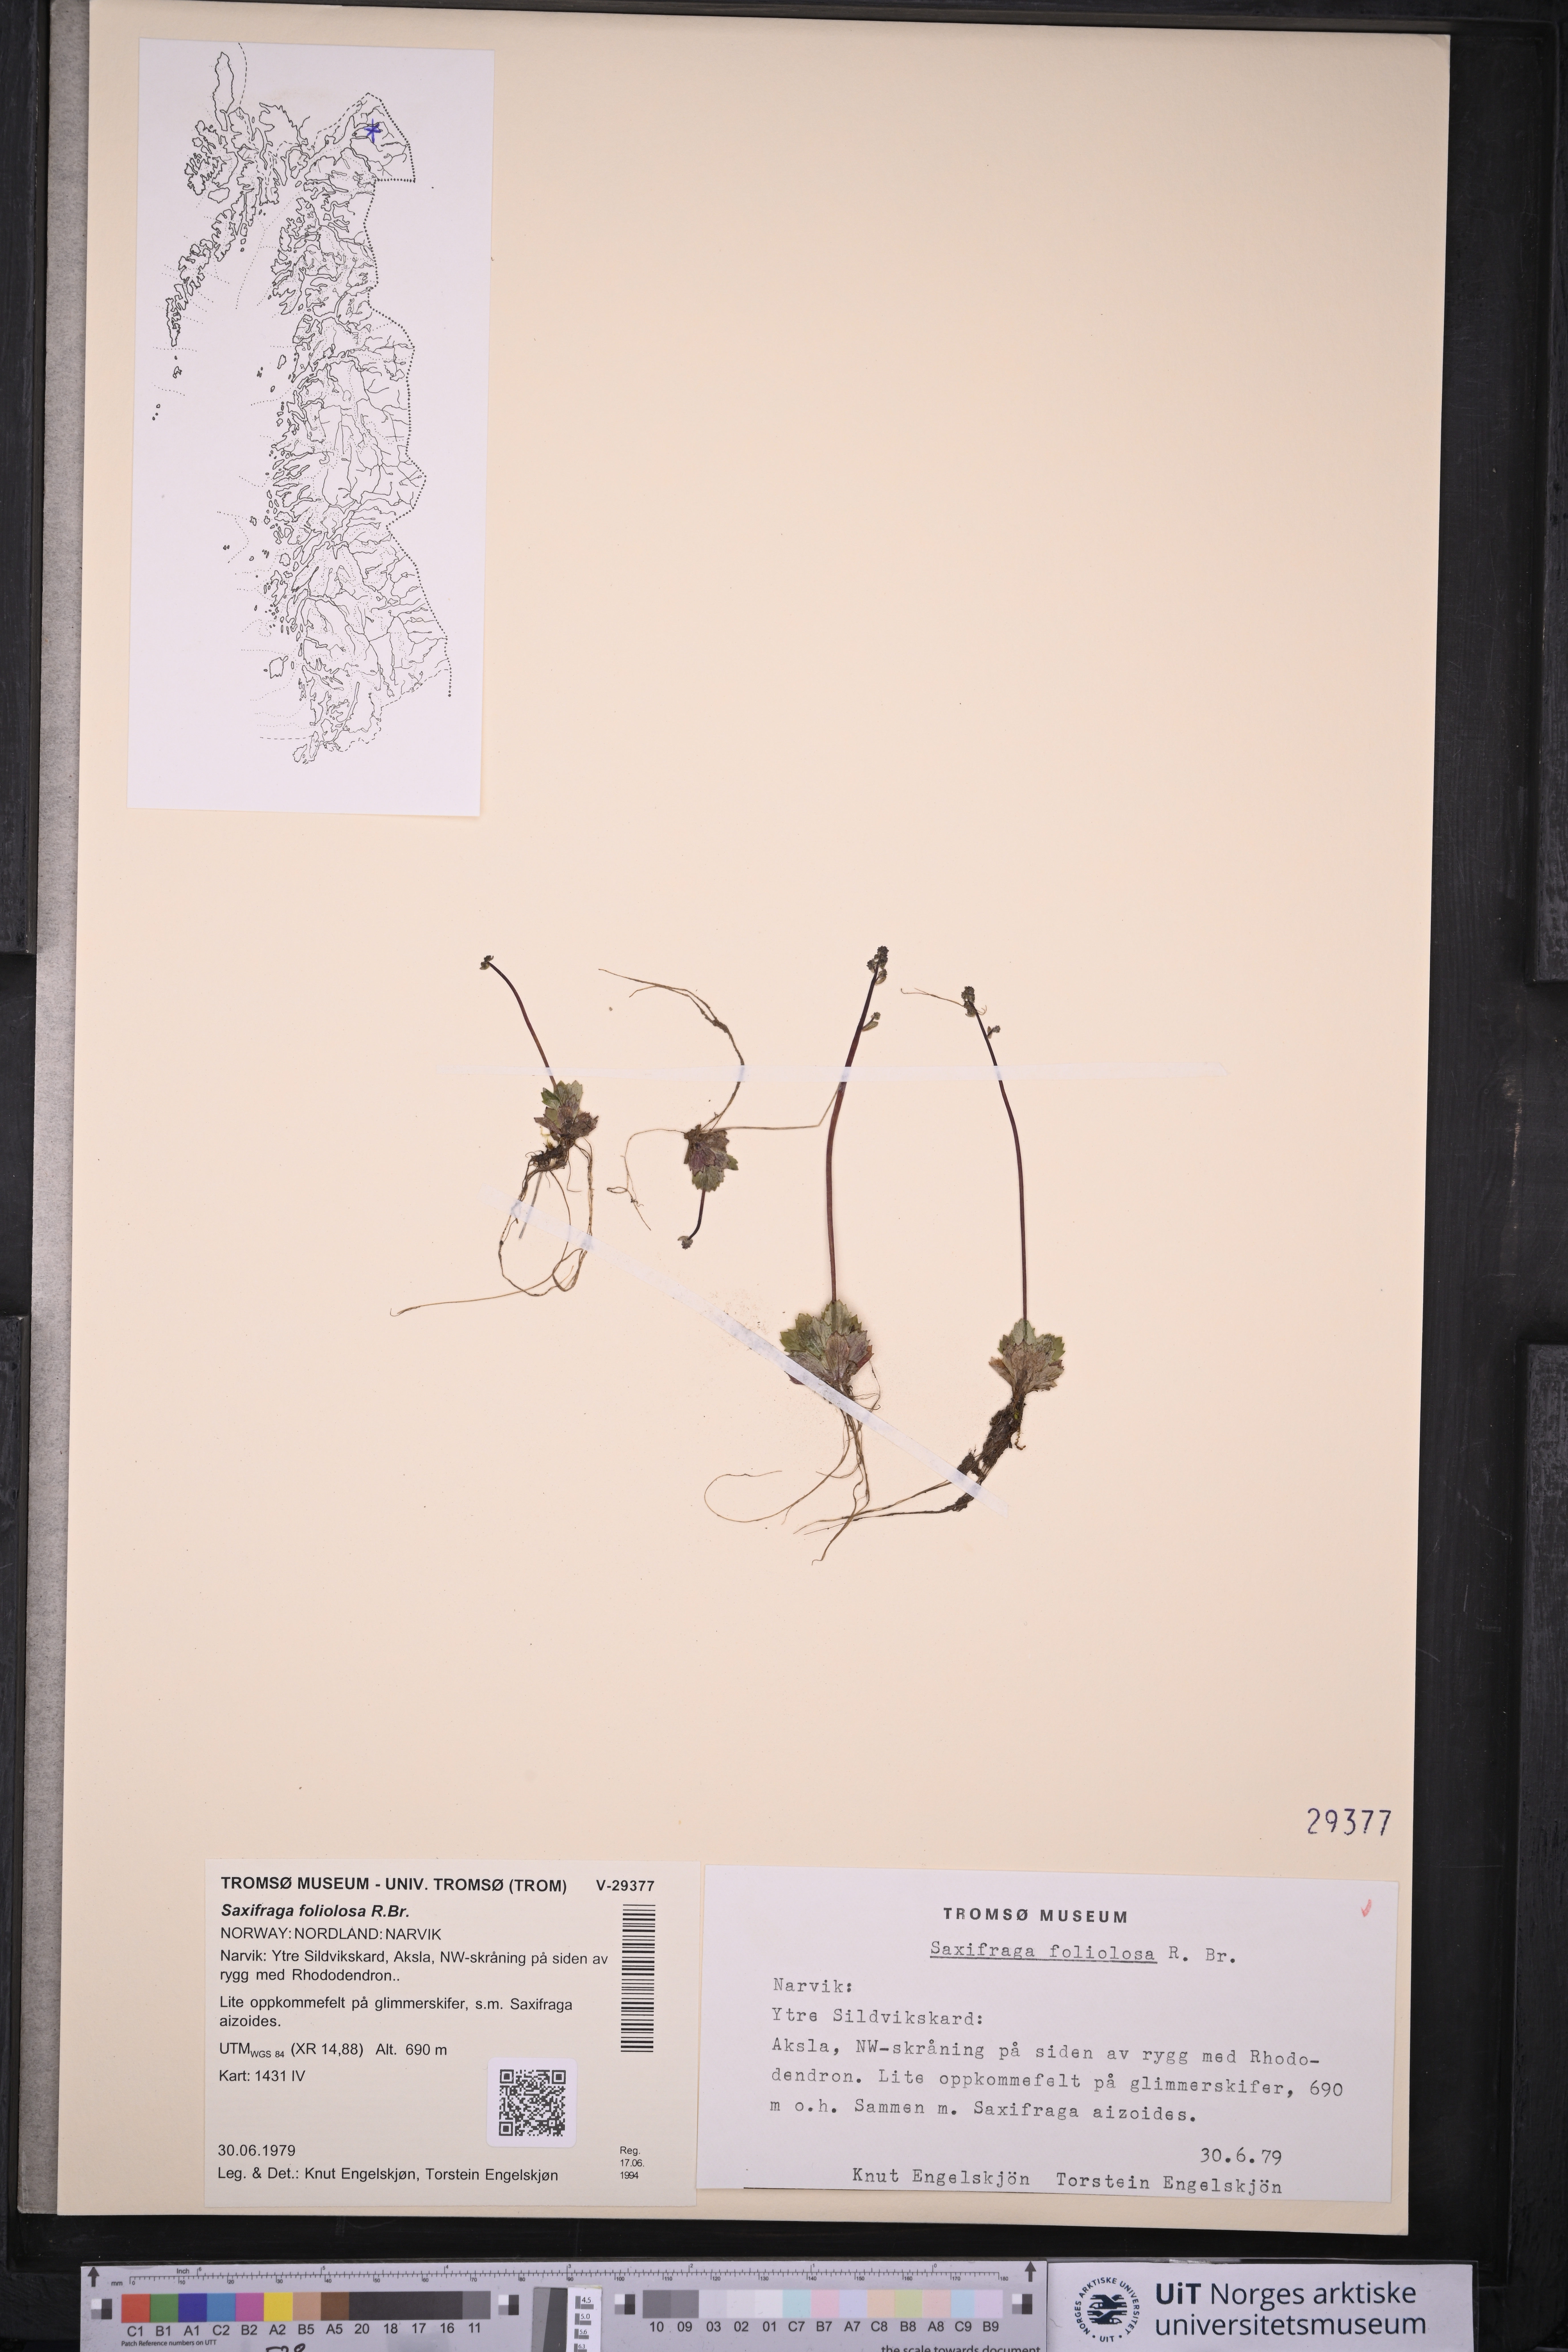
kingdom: Plantae
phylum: Tracheophyta
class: Magnoliopsida
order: Saxifragales
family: Saxifragaceae
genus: Micranthes
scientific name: Micranthes foliolosa
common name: Leafystem saxifrage
